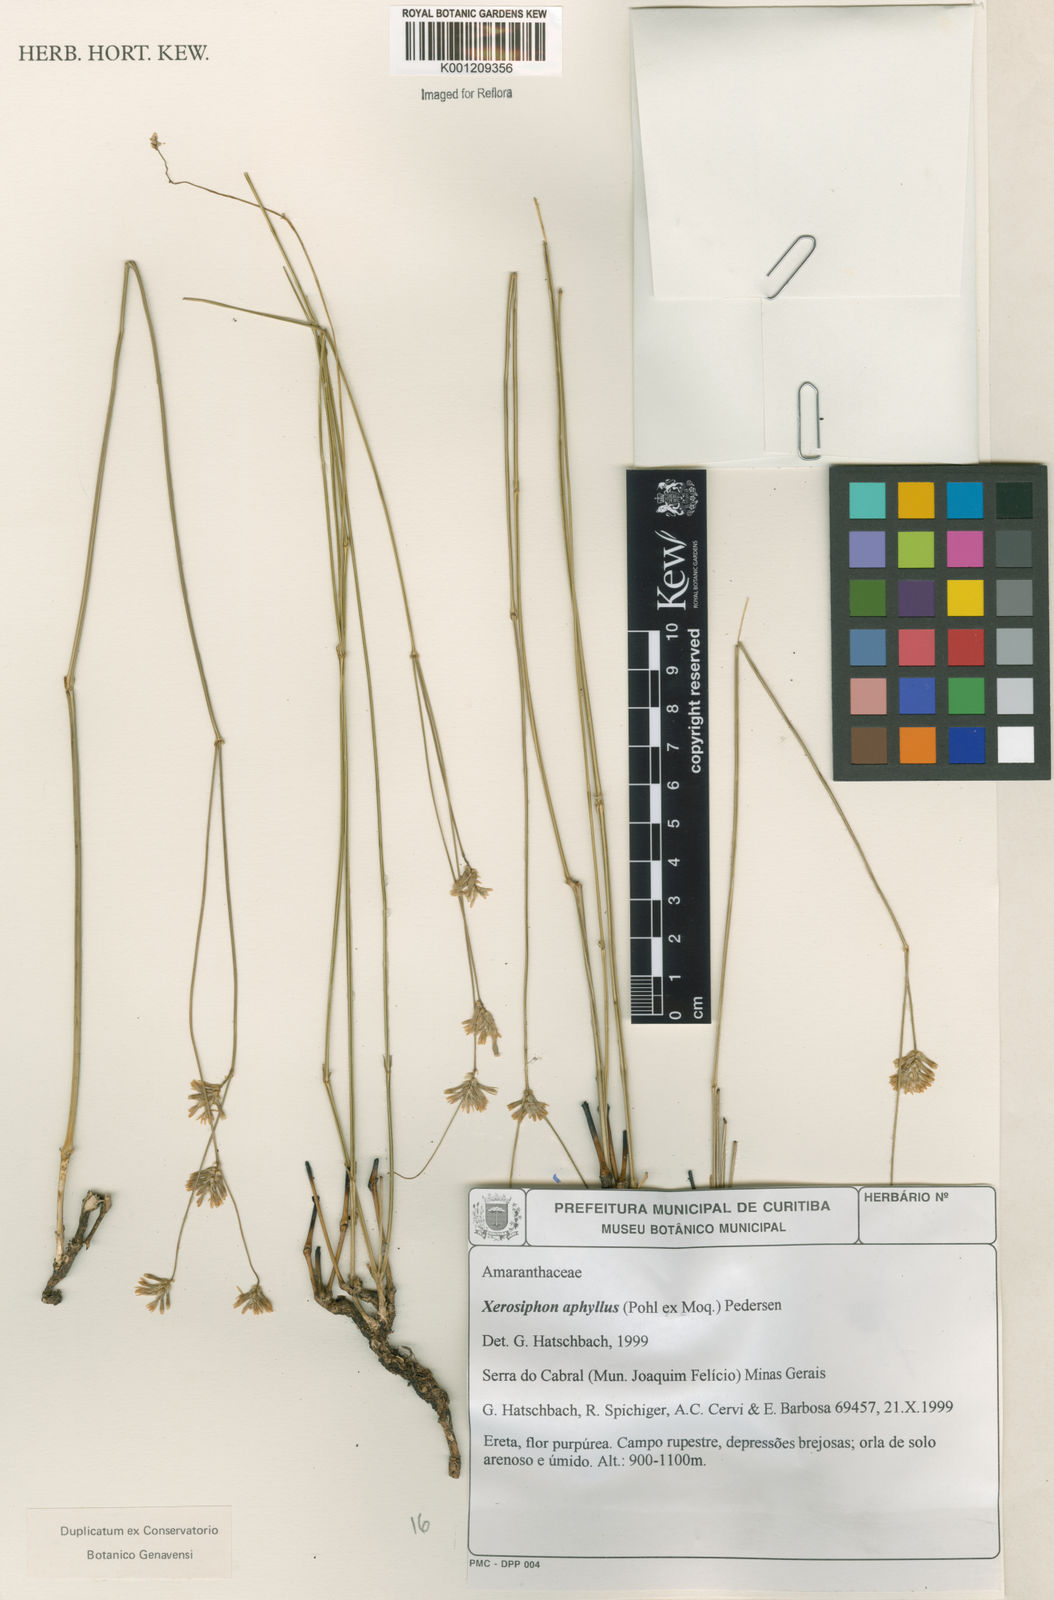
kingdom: Plantae
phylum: Tracheophyta
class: Magnoliopsida
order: Caryophyllales
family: Amaranthaceae
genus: Gomphrena
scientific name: Gomphrena aphylla
